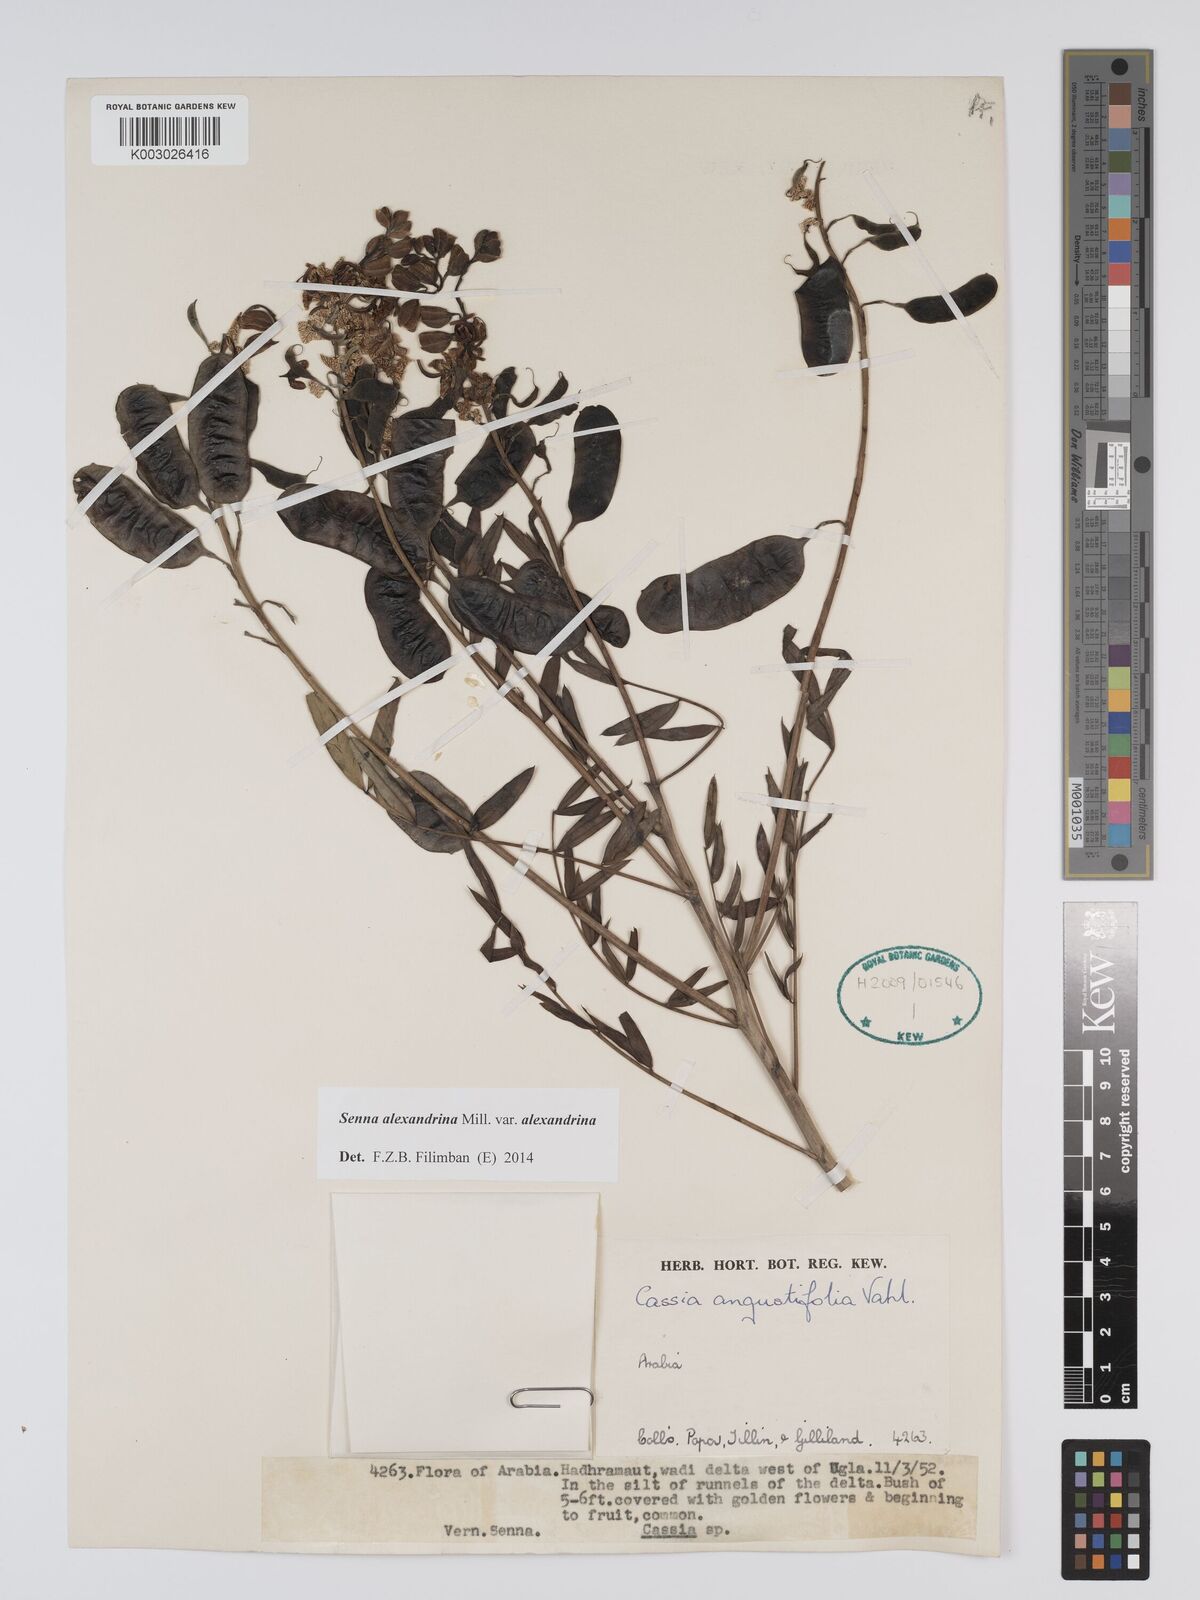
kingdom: Plantae
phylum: Tracheophyta
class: Magnoliopsida
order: Fabales
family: Fabaceae
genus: Senna
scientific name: Senna alexandrina
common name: True senna
